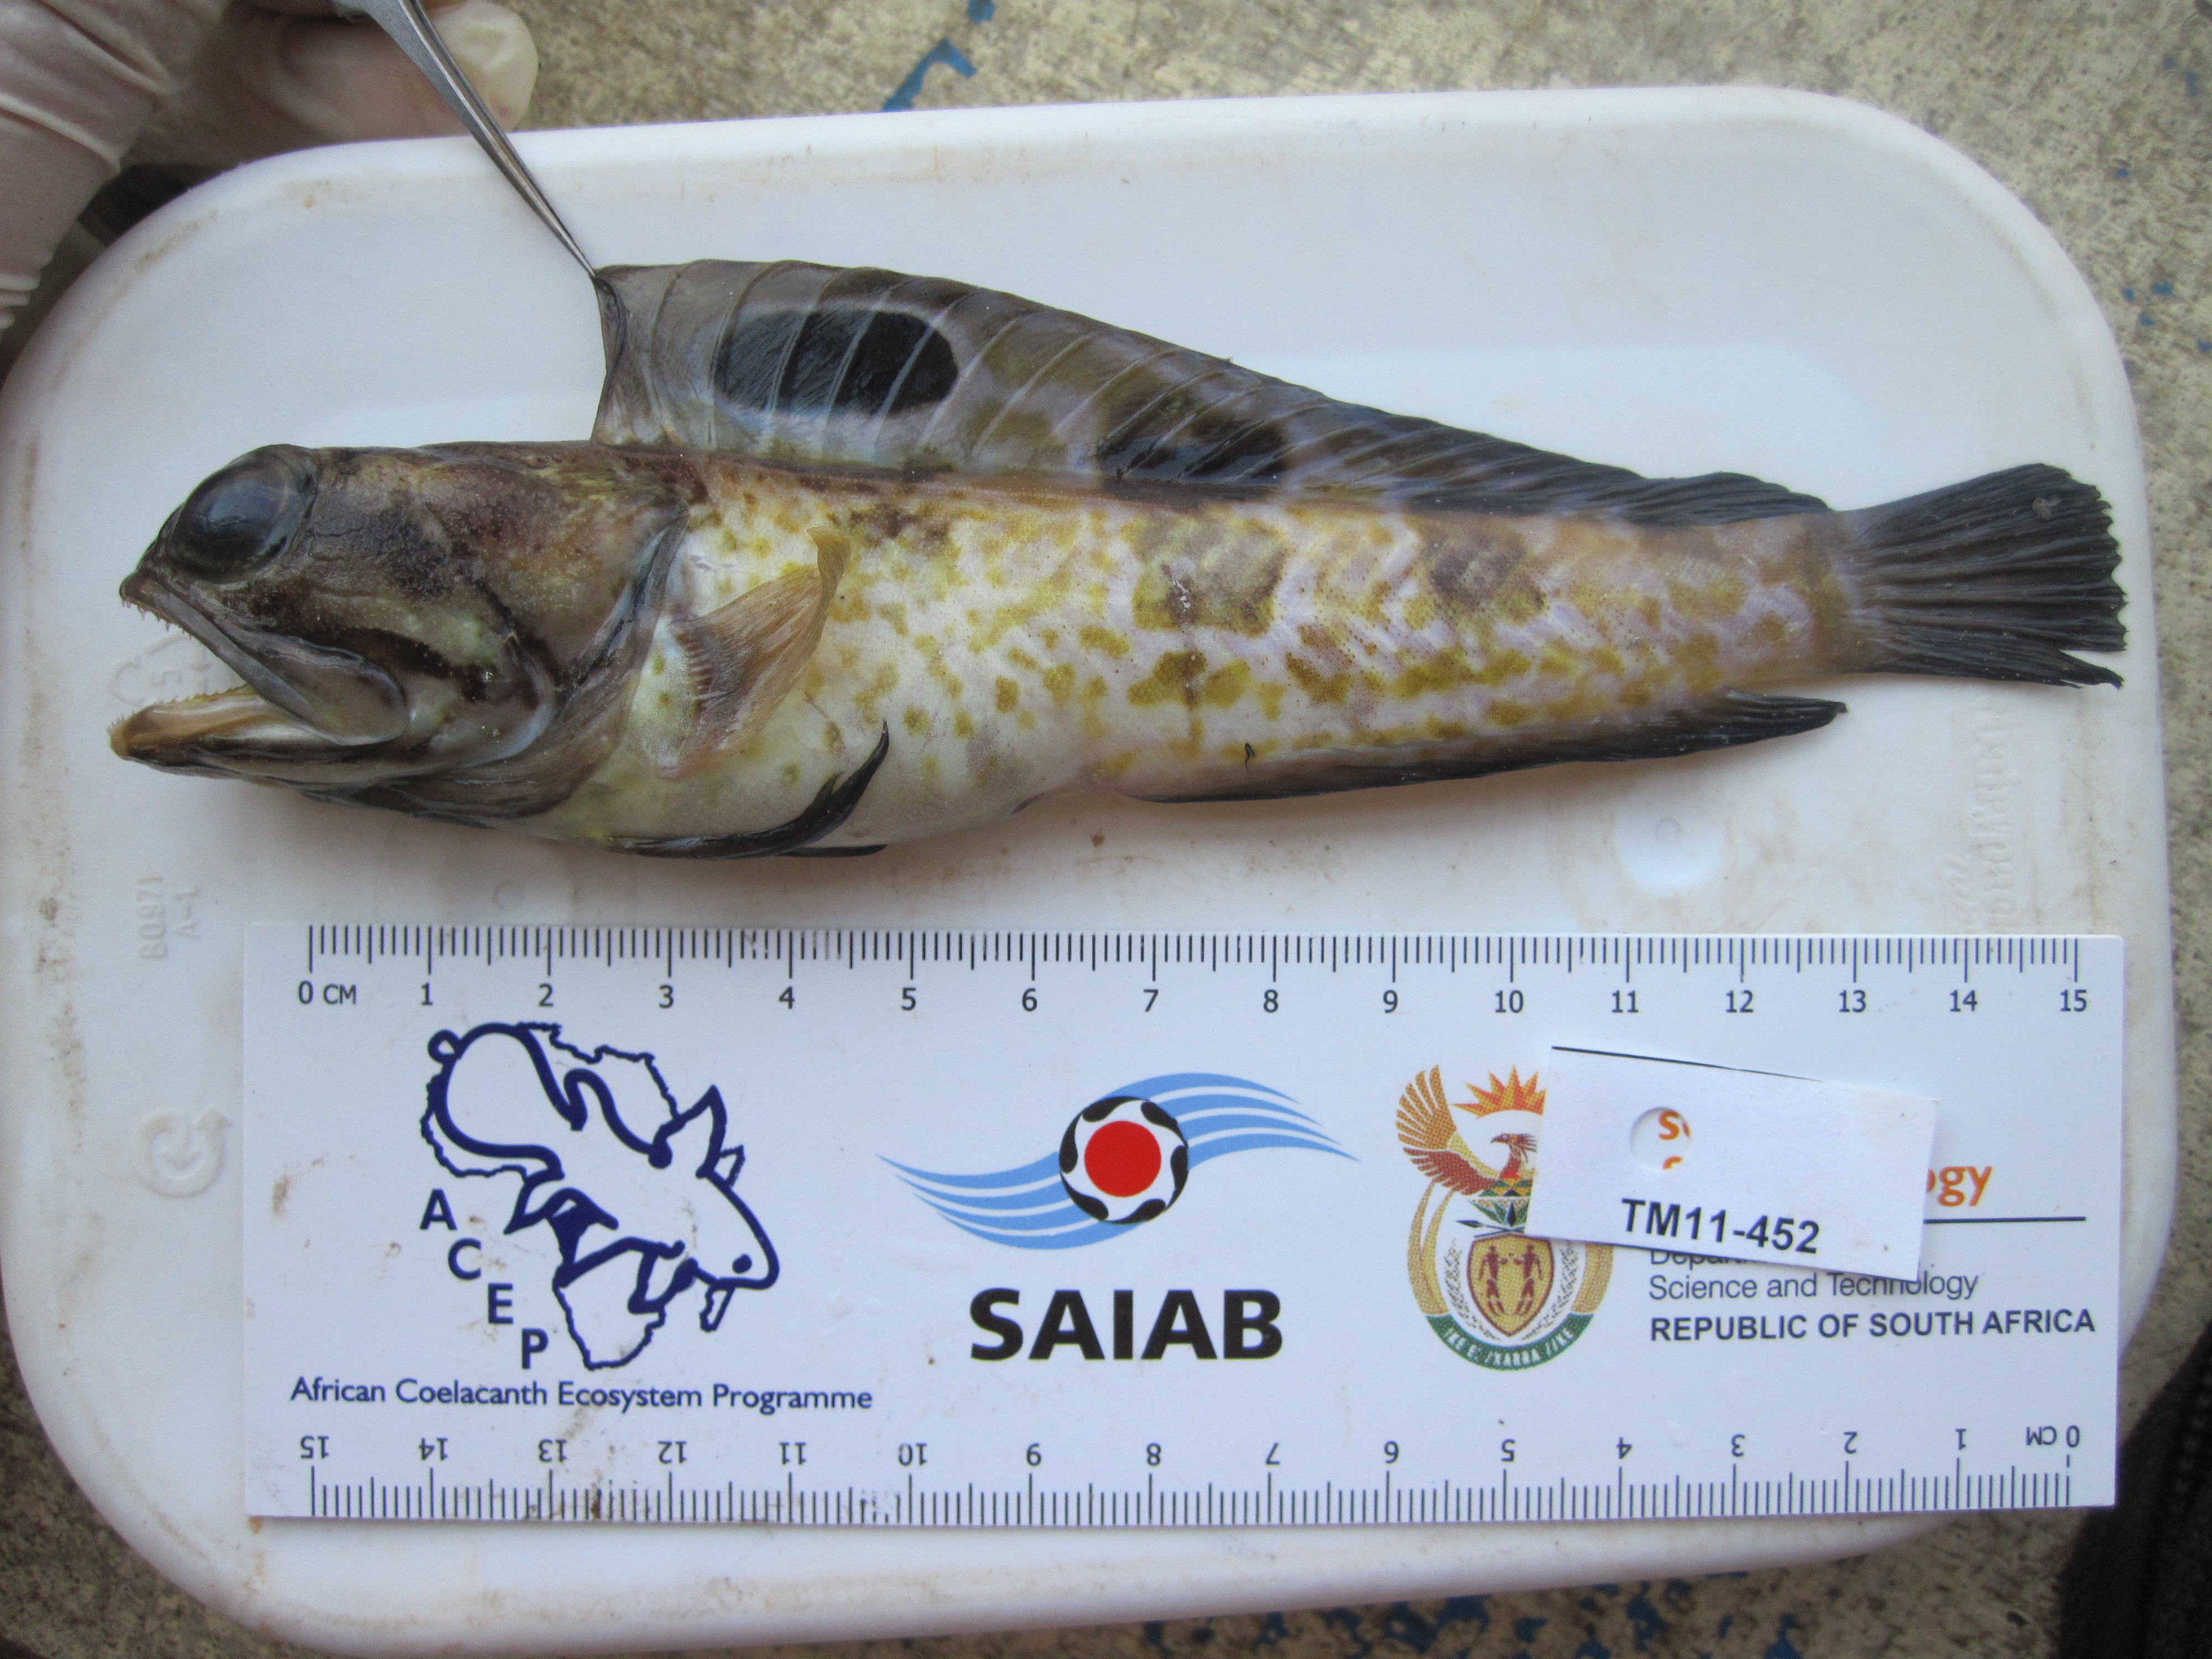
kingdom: Animalia
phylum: Chordata
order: Perciformes
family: Opistognathidae
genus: Opistognathus
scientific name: Opistognathus muscatensis
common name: Robust jawfish
